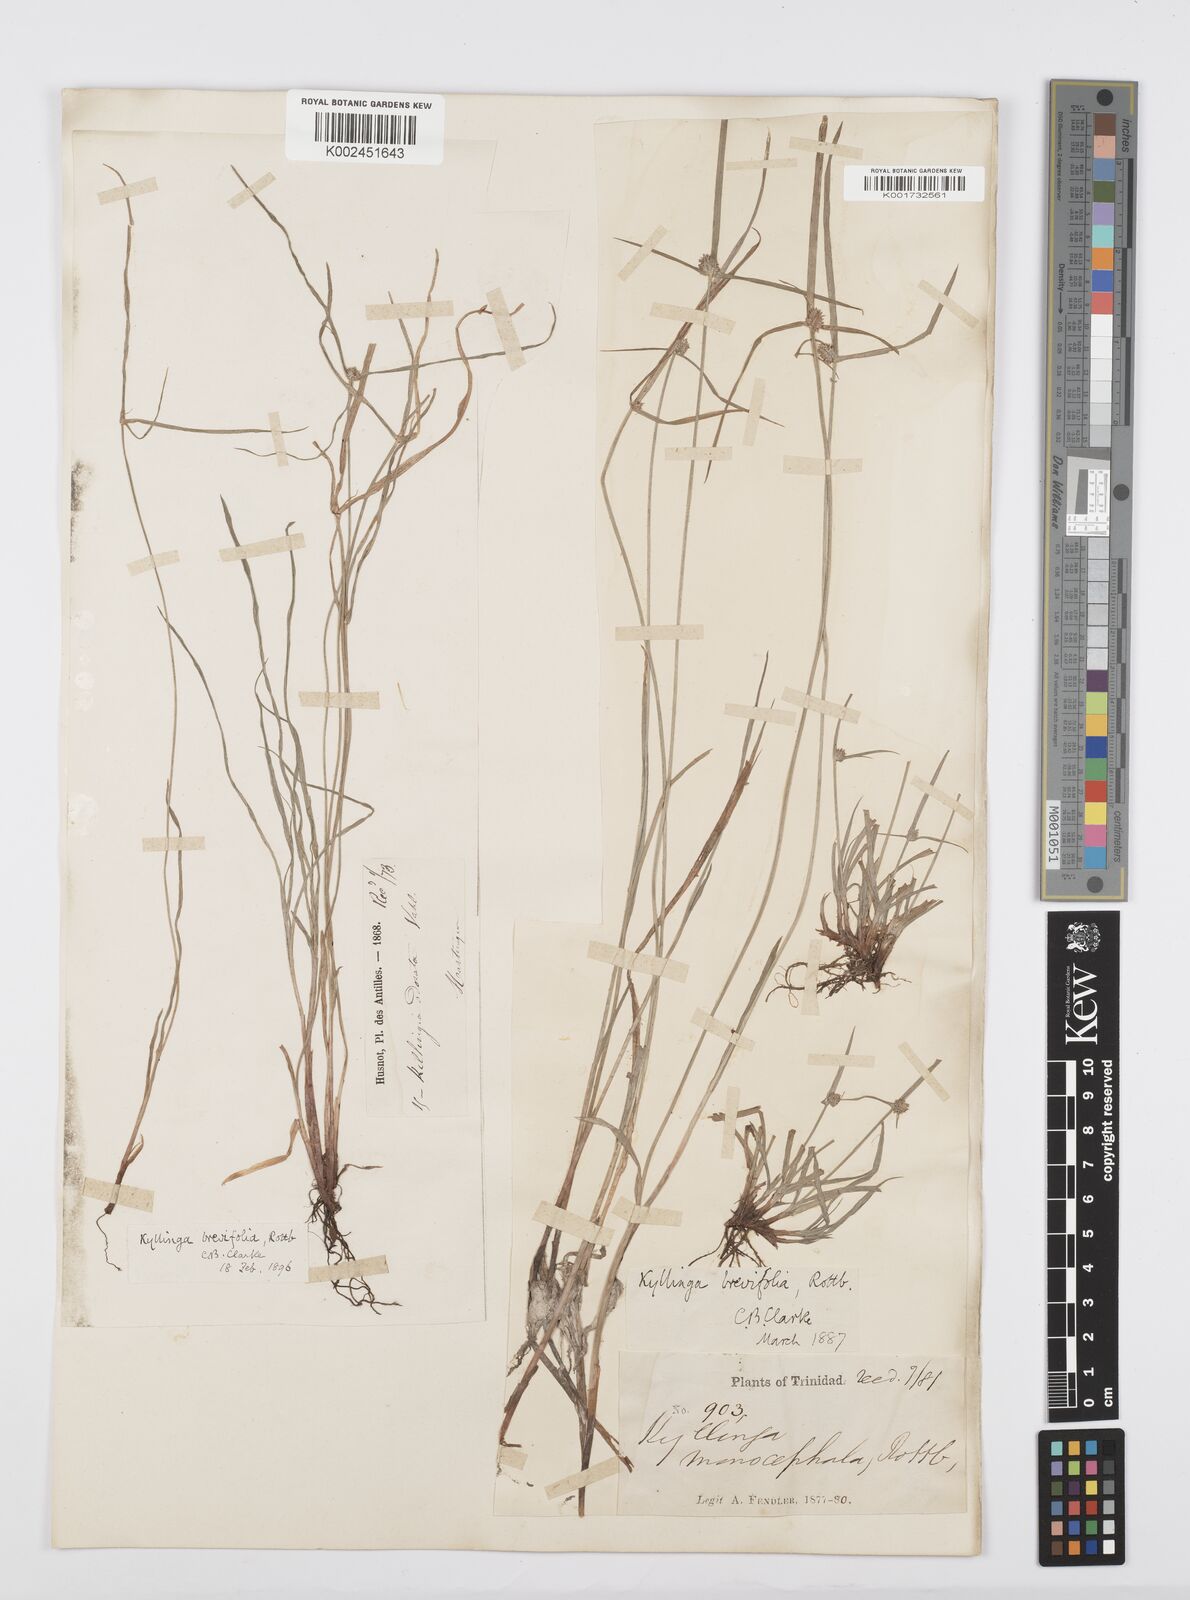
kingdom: Plantae
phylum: Tracheophyta
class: Liliopsida
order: Poales
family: Cyperaceae
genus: Cyperus
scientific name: Cyperus brevifolius
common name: Globe kyllinga
